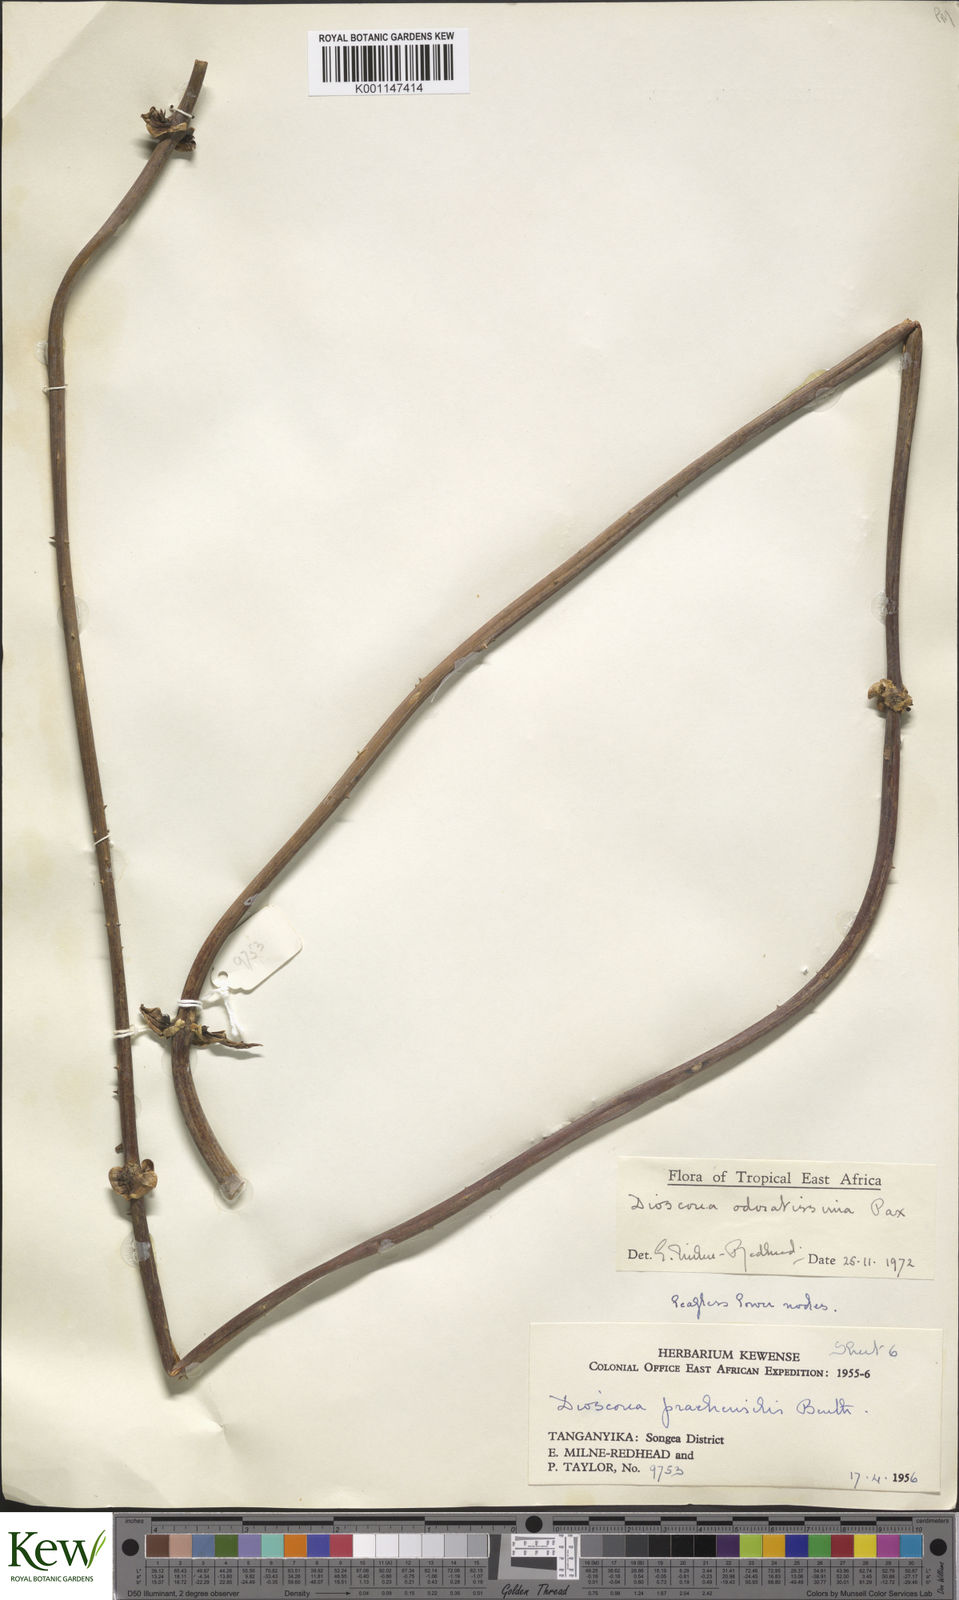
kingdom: Plantae
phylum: Tracheophyta
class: Liliopsida
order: Dioscoreales
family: Dioscoreaceae
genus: Dioscorea
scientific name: Dioscorea praehensilis
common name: Bush yam
